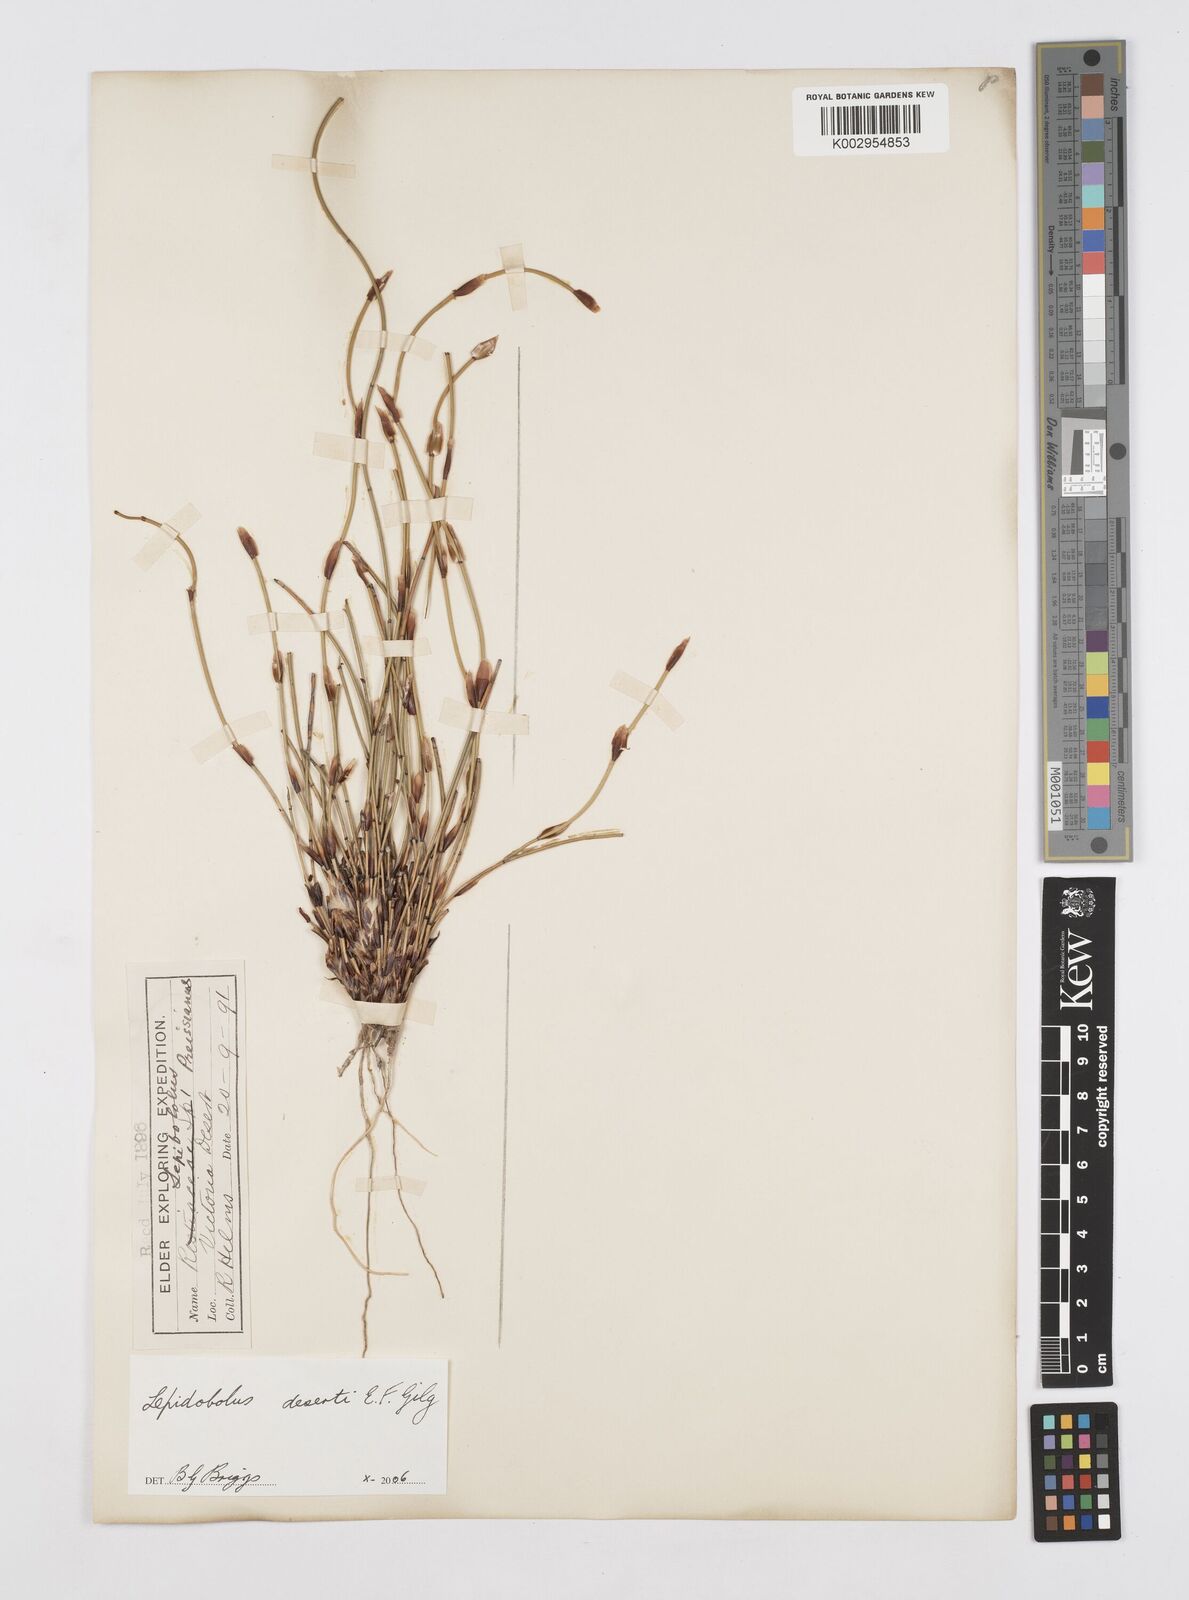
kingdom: Plantae
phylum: Tracheophyta
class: Liliopsida
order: Poales
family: Restionaceae
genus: Lepidobolus
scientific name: Lepidobolus deserti
